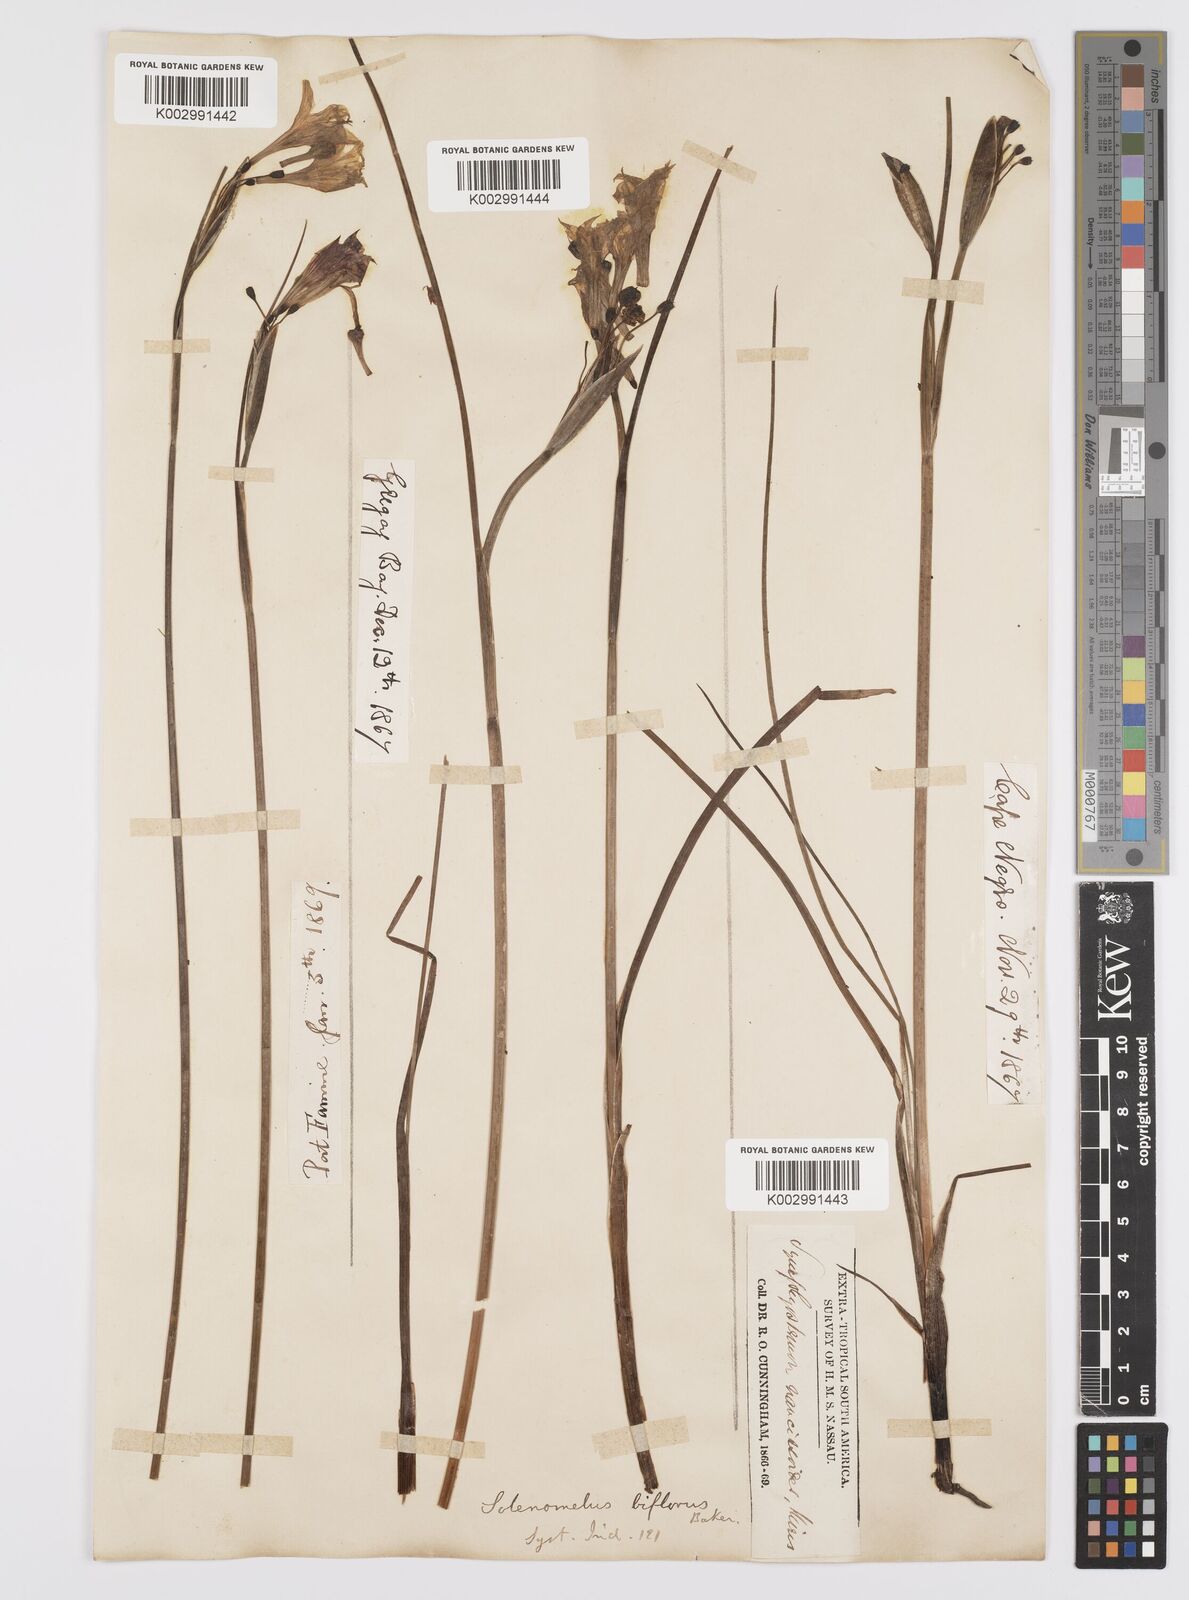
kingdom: Plantae
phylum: Tracheophyta
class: Liliopsida
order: Asparagales
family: Iridaceae
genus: Olsynium
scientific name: Olsynium biflorum
